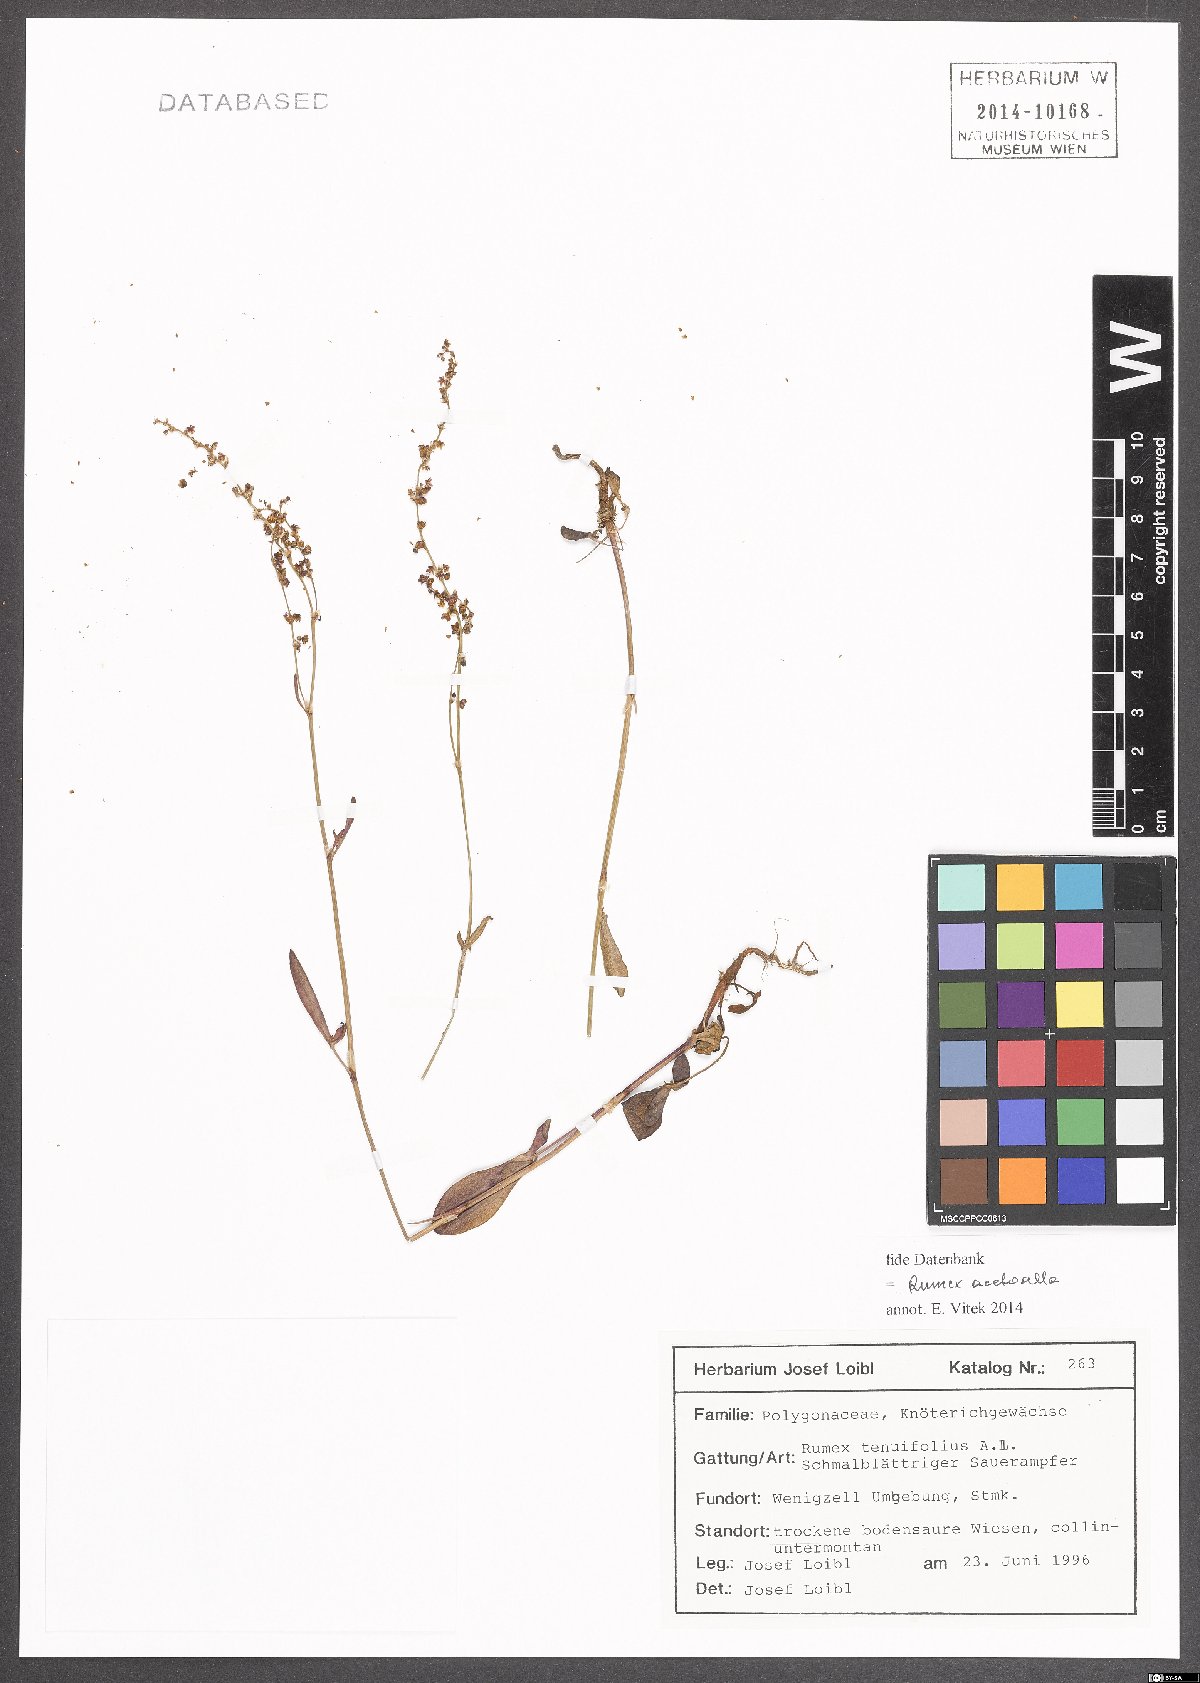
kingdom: Plantae
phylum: Tracheophyta
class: Magnoliopsida
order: Caryophyllales
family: Polygonaceae
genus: Rumex
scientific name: Rumex acetosella
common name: Common sheep sorrel
